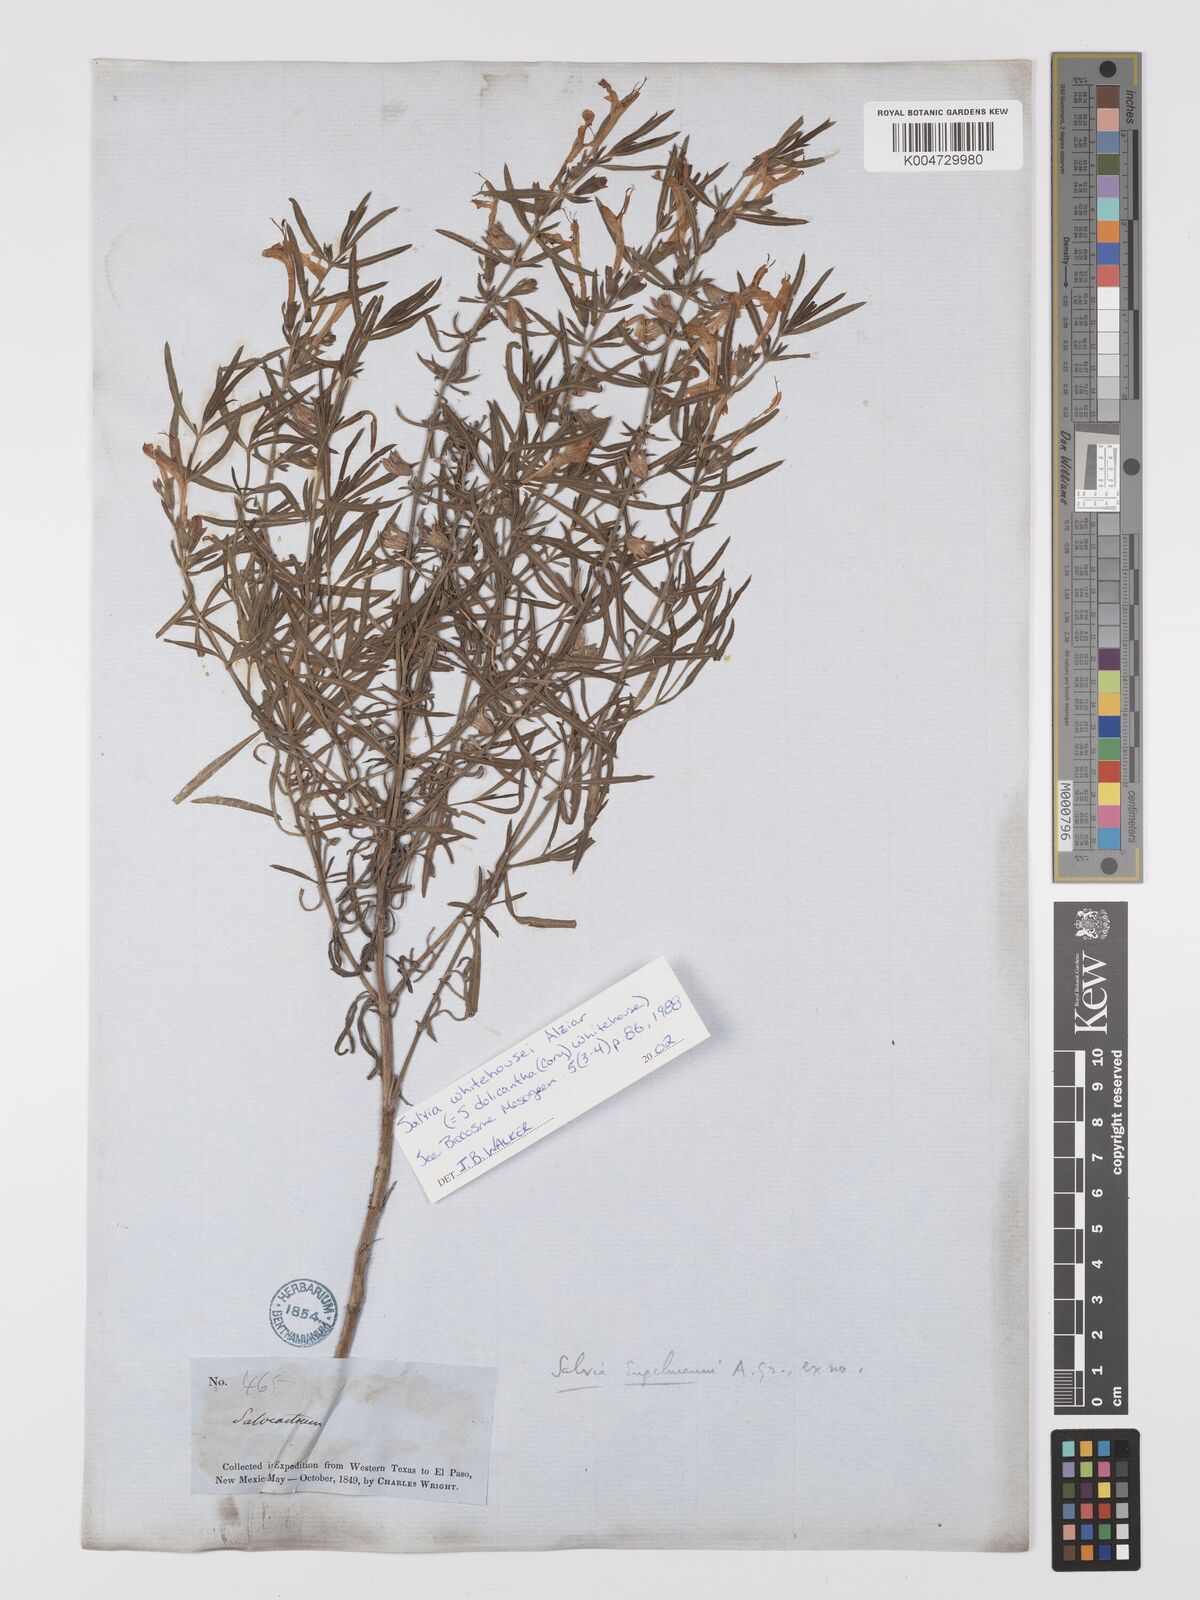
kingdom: Plantae
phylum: Tracheophyta
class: Magnoliopsida
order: Lamiales
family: Lamiaceae
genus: Salvia
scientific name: Salvia
